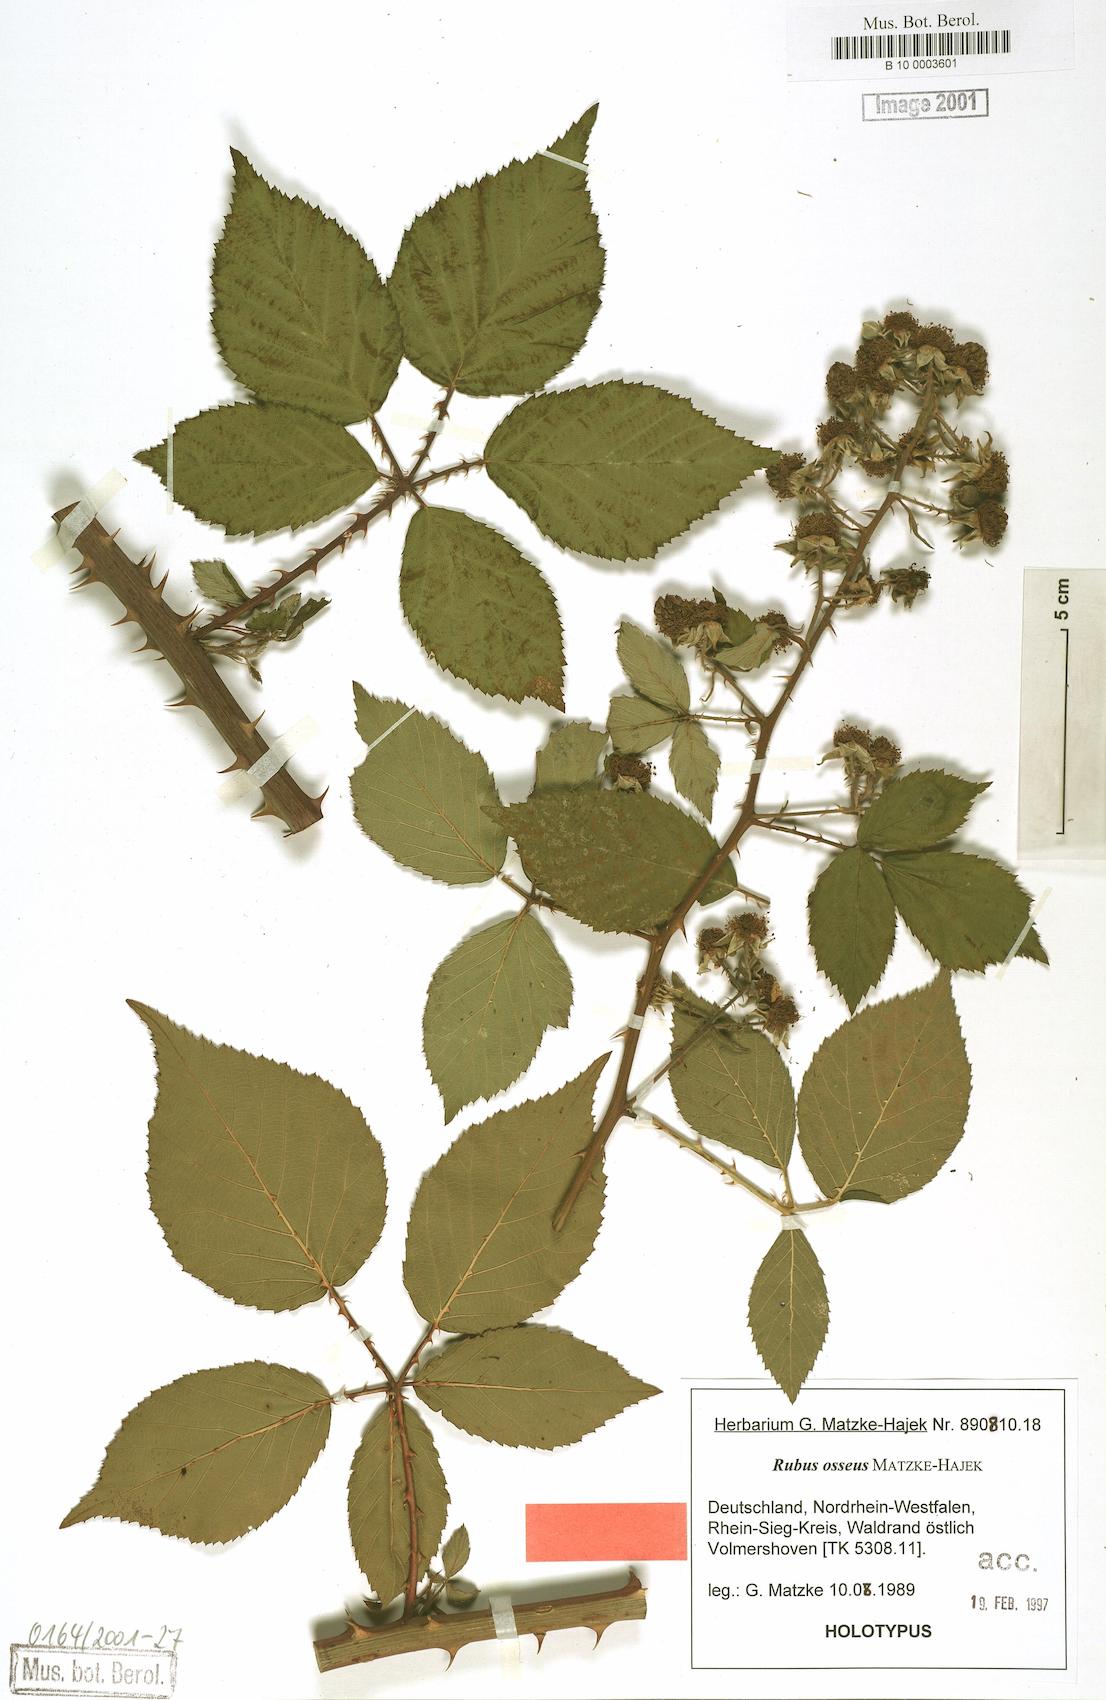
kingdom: Plantae
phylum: Tracheophyta
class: Magnoliopsida
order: Rosales
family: Rosaceae
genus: Rubus
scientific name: Rubus adelphicus
